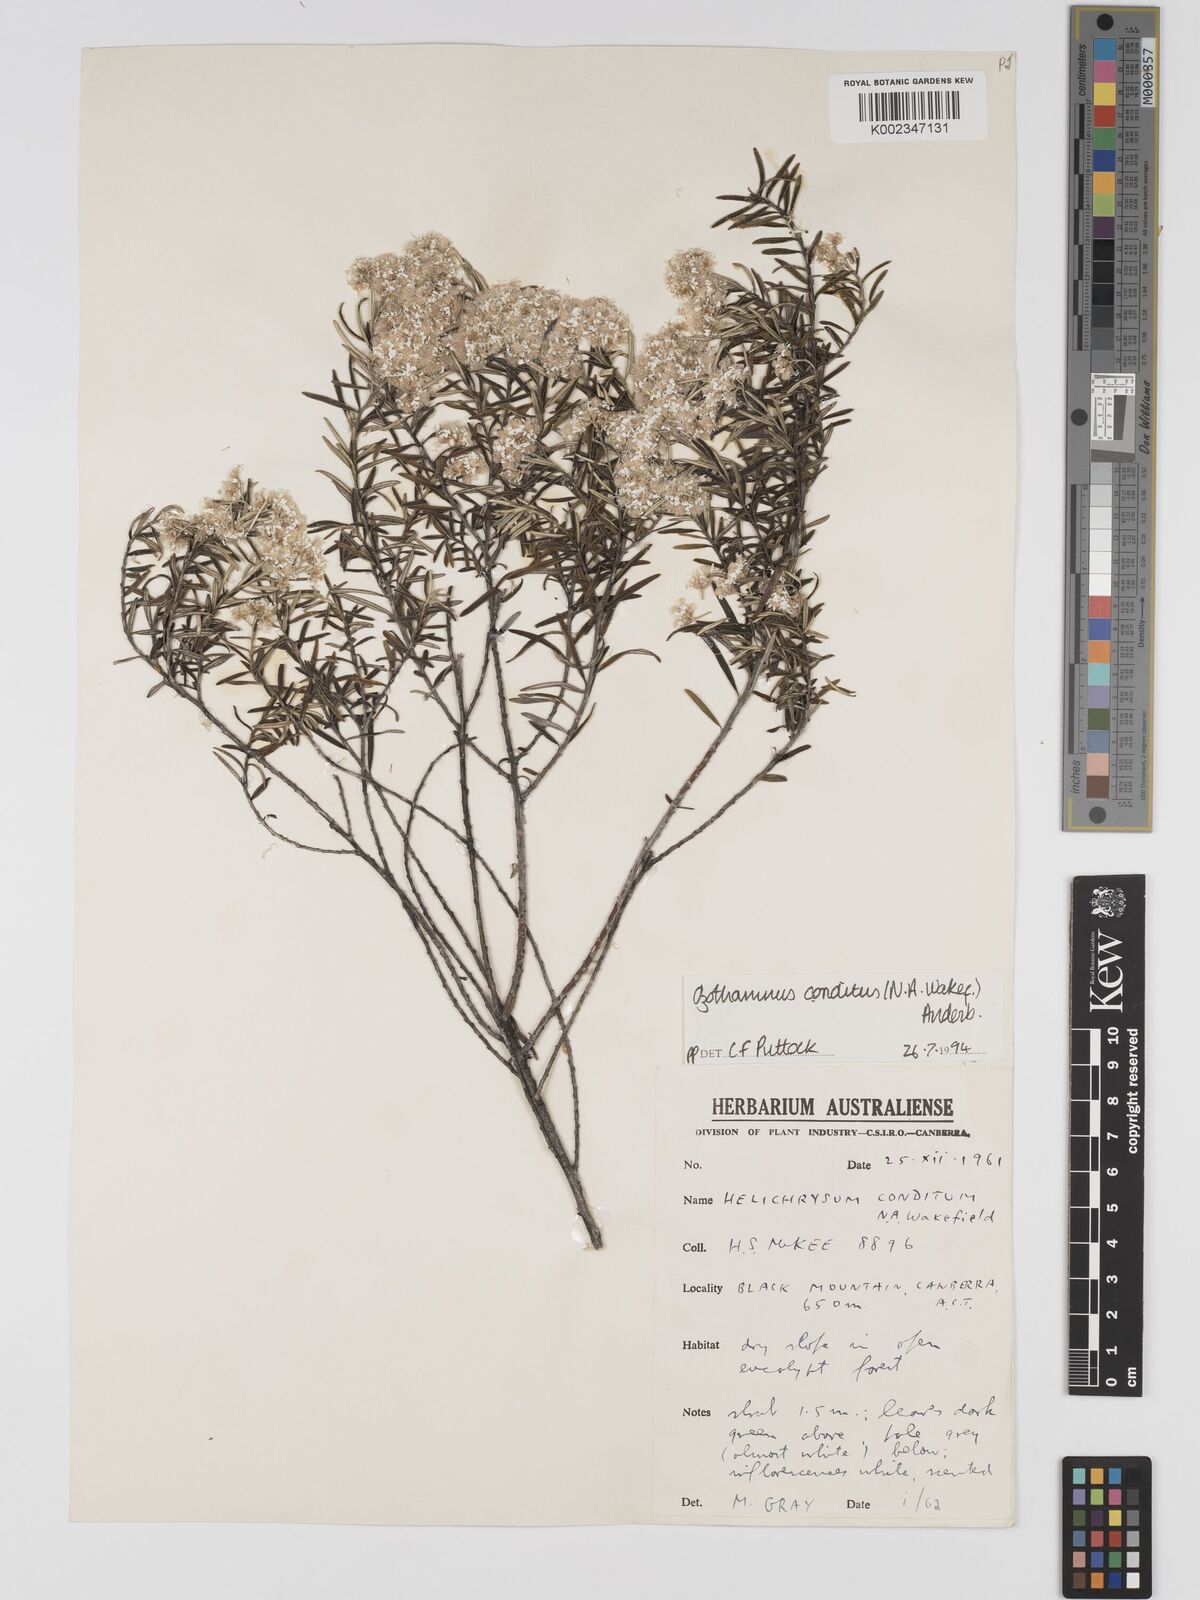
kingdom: Plantae
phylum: Tracheophyta
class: Magnoliopsida
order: Asterales
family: Asteraceae
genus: Ozothamnus
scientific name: Ozothamnus conditus
